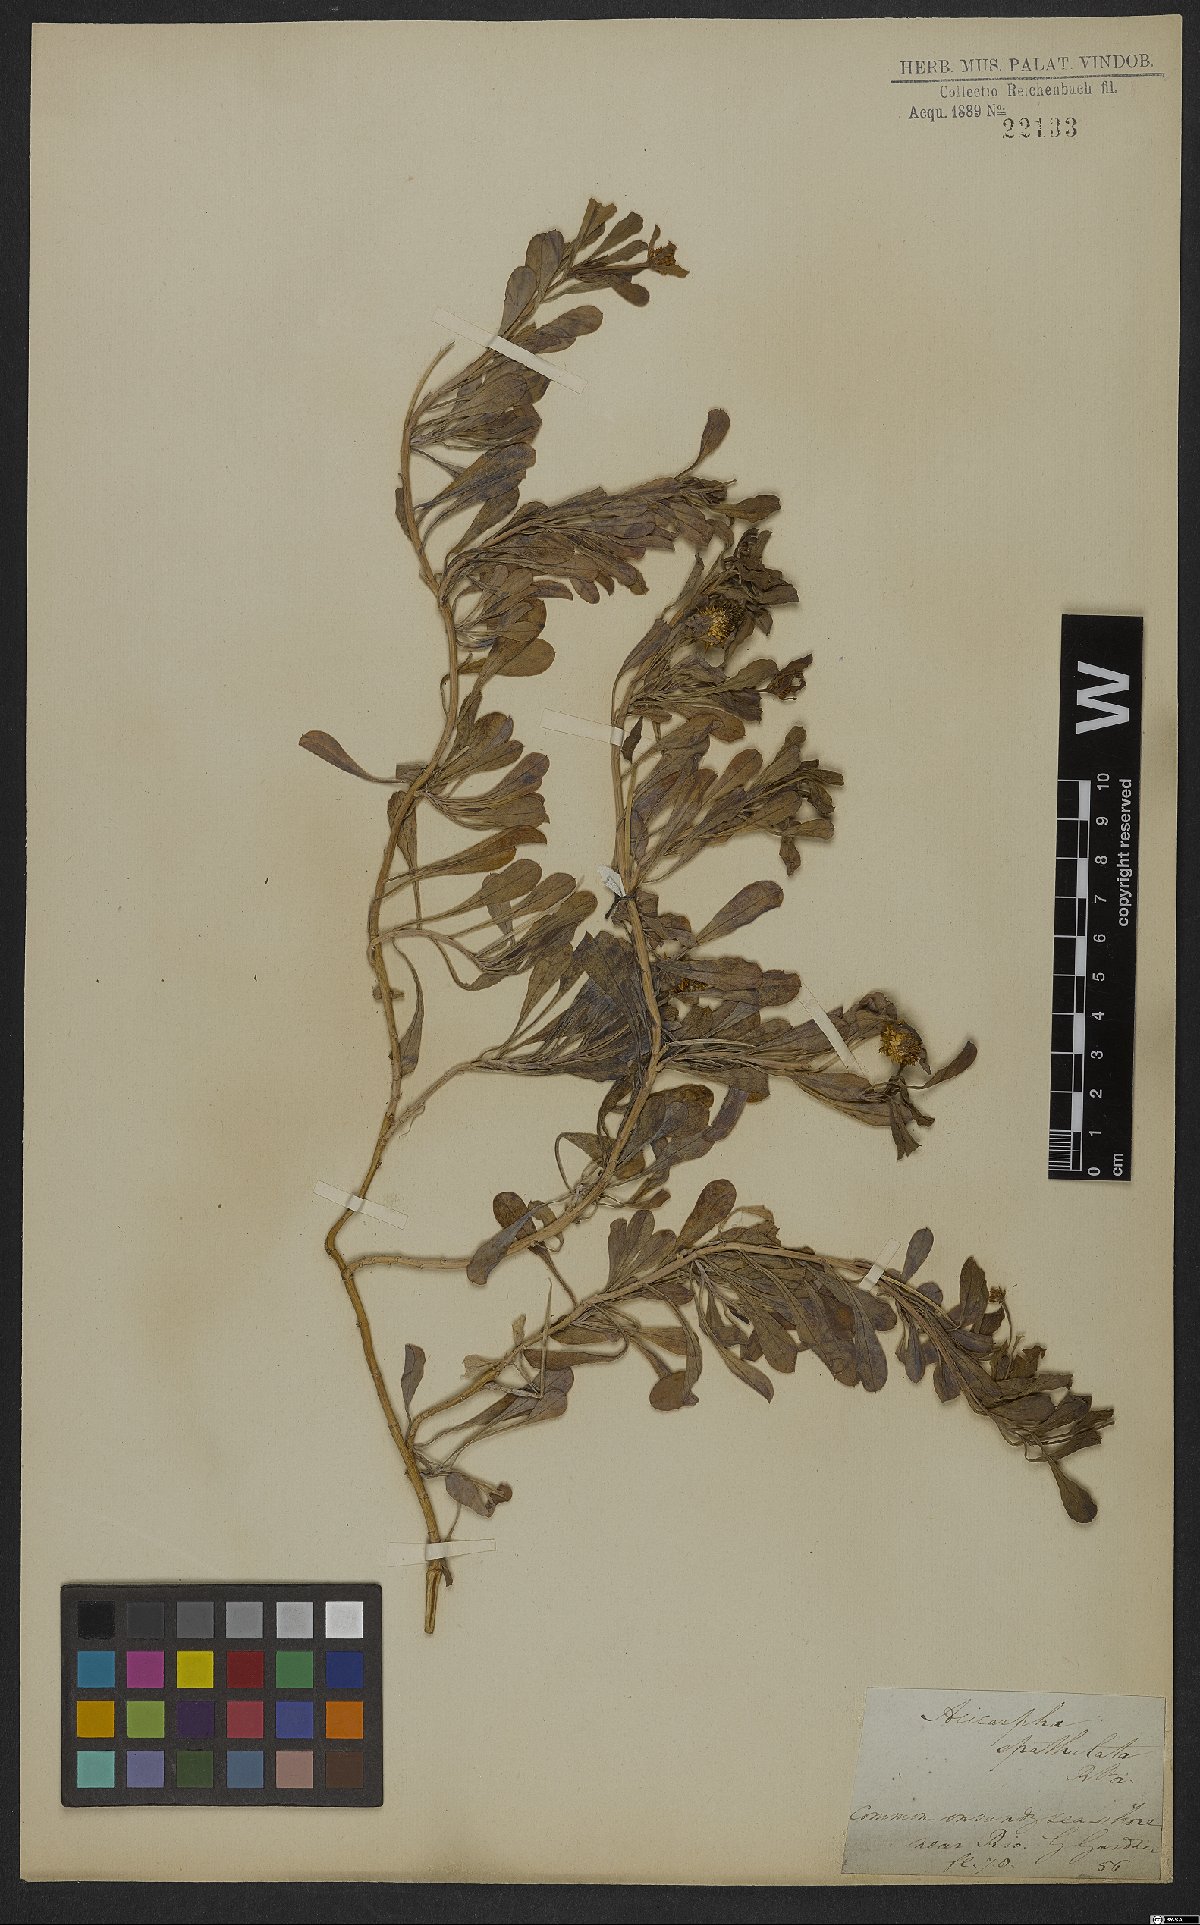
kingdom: Plantae
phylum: Tracheophyta
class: Magnoliopsida
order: Asterales
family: Calyceraceae
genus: Acicarpha
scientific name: Acicarpha spathulata
